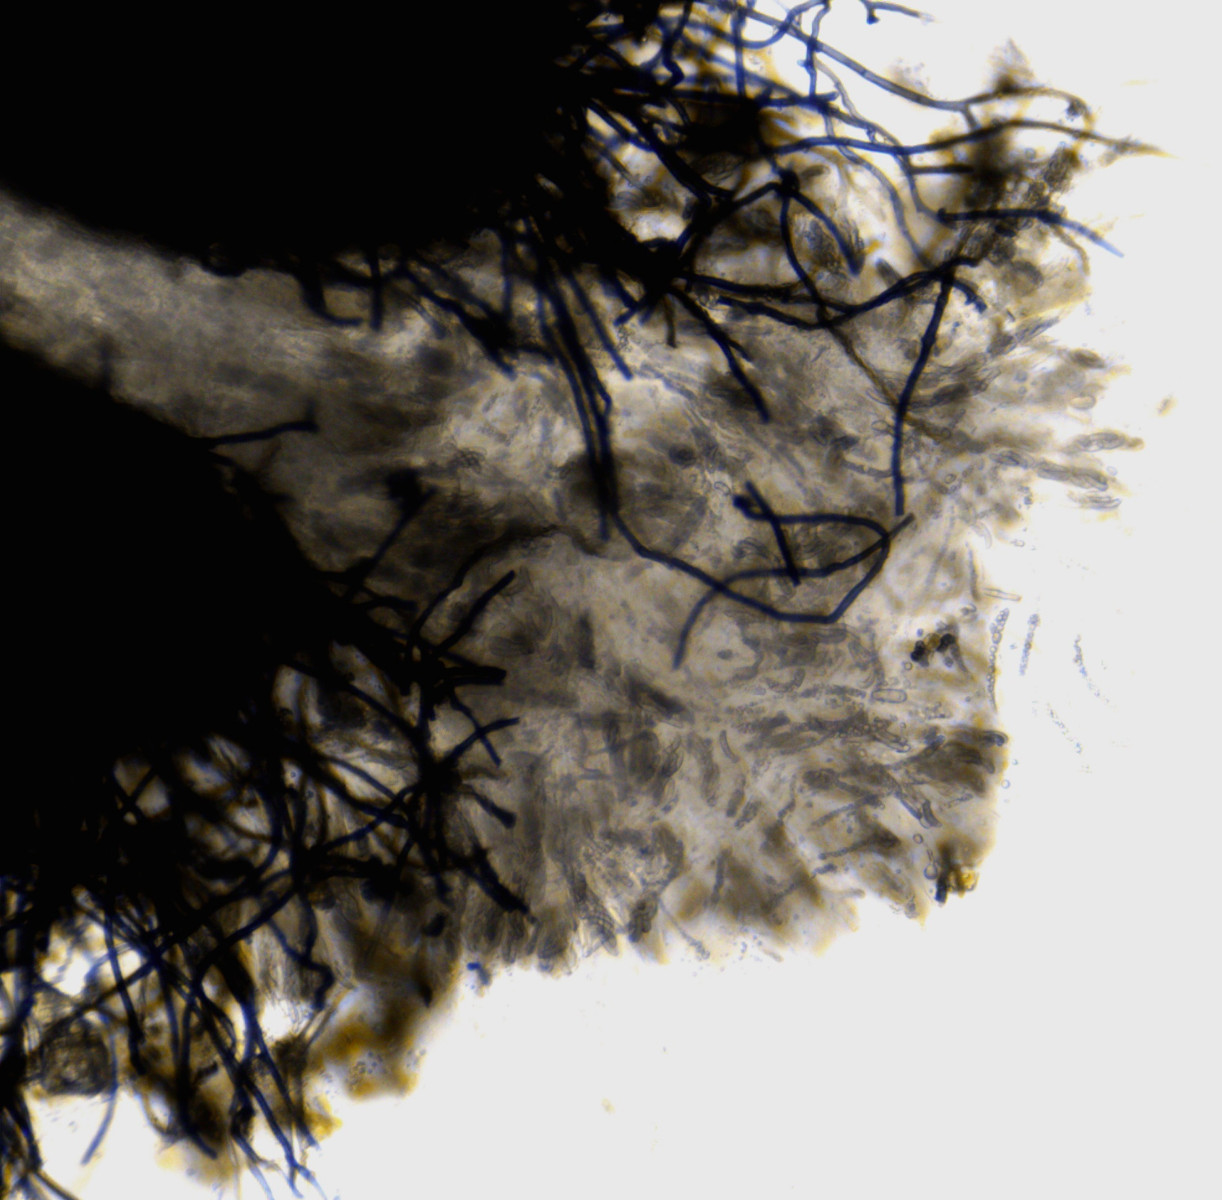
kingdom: Fungi
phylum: Ascomycota
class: Sordariomycetes
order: Coronophorales
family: Nitschkiaceae
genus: Enchnoa
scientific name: Enchnoa infernalis
